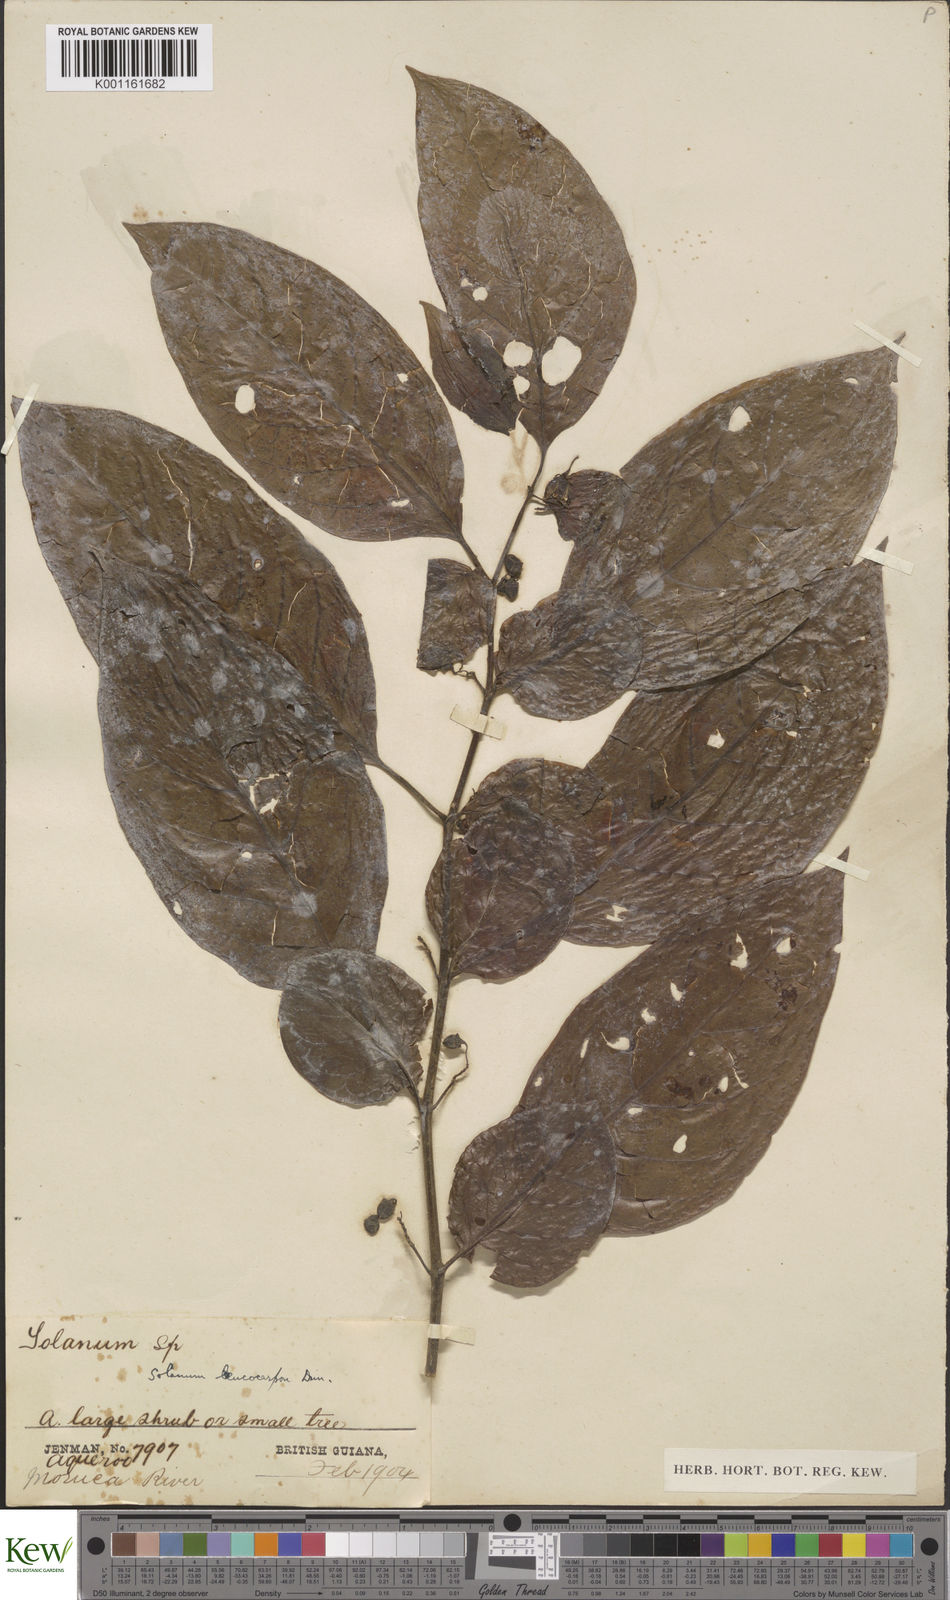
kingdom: Plantae
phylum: Tracheophyta
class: Magnoliopsida
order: Solanales
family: Solanaceae
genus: Solanum
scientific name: Solanum leucocarpon
